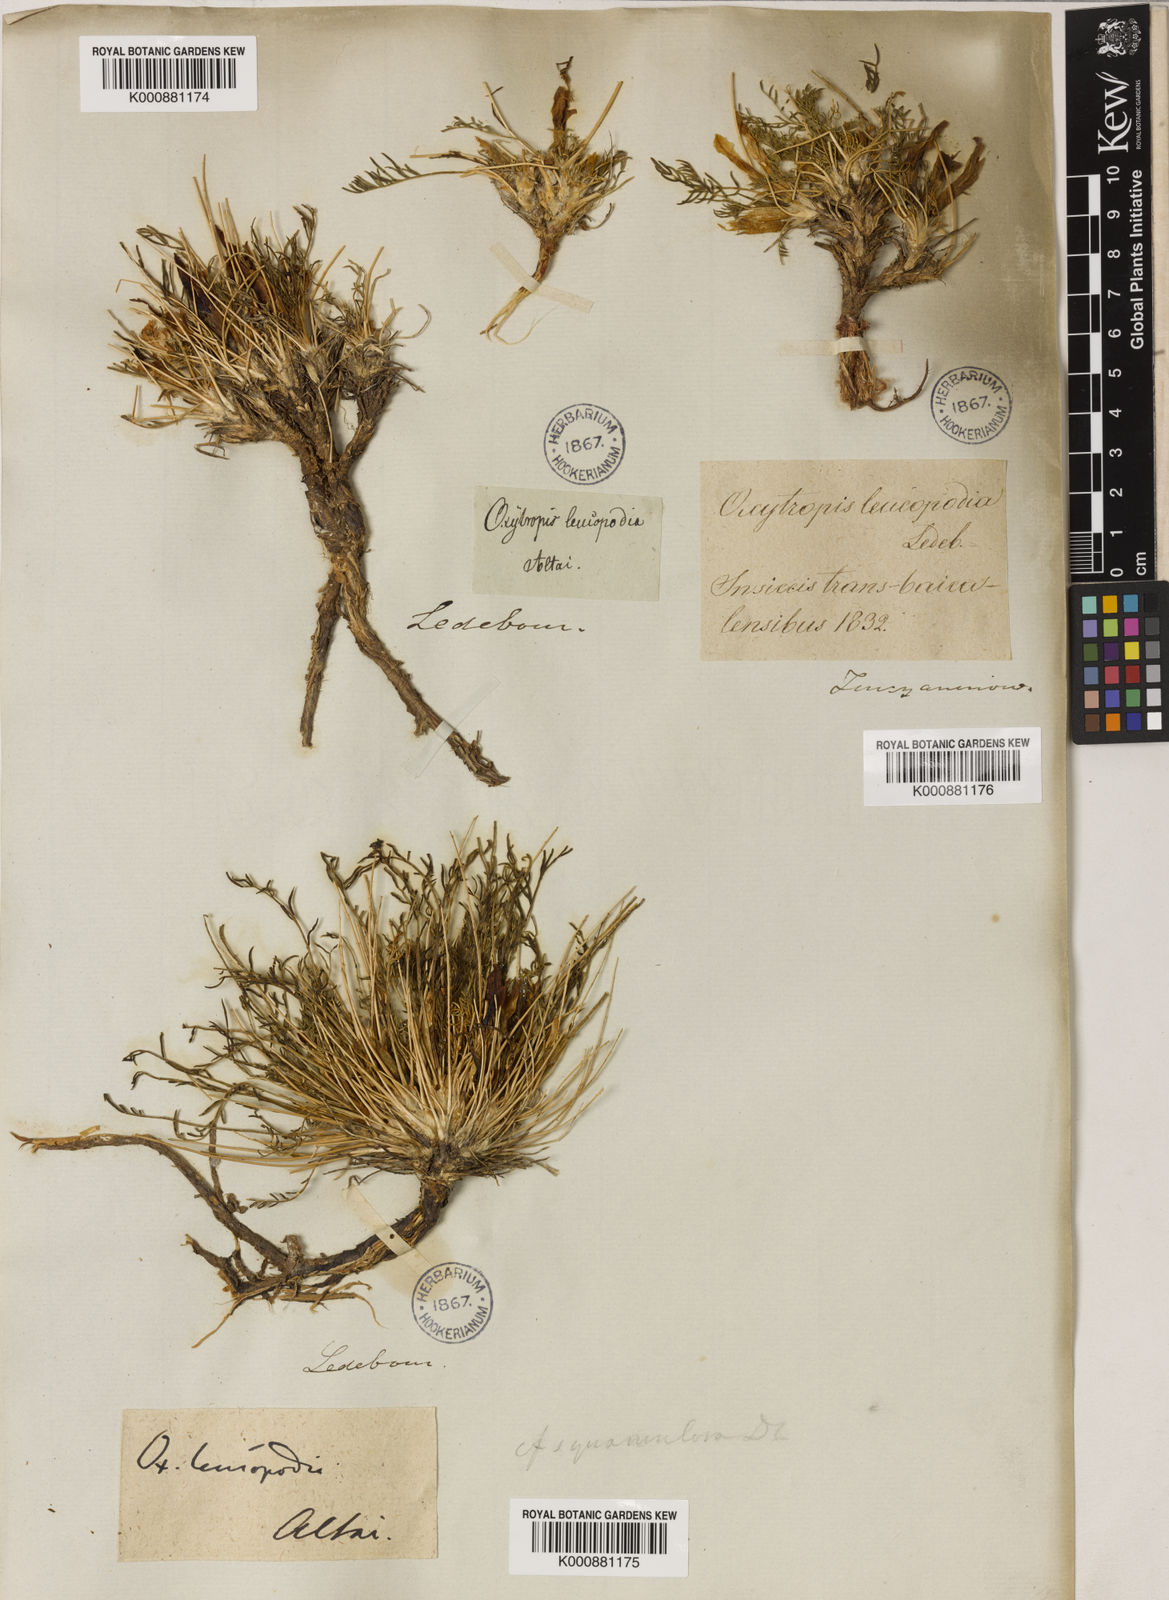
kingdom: Plantae
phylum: Tracheophyta
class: Magnoliopsida
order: Fabales
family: Fabaceae
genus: Oxytropis
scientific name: Oxytropis squammulosa
